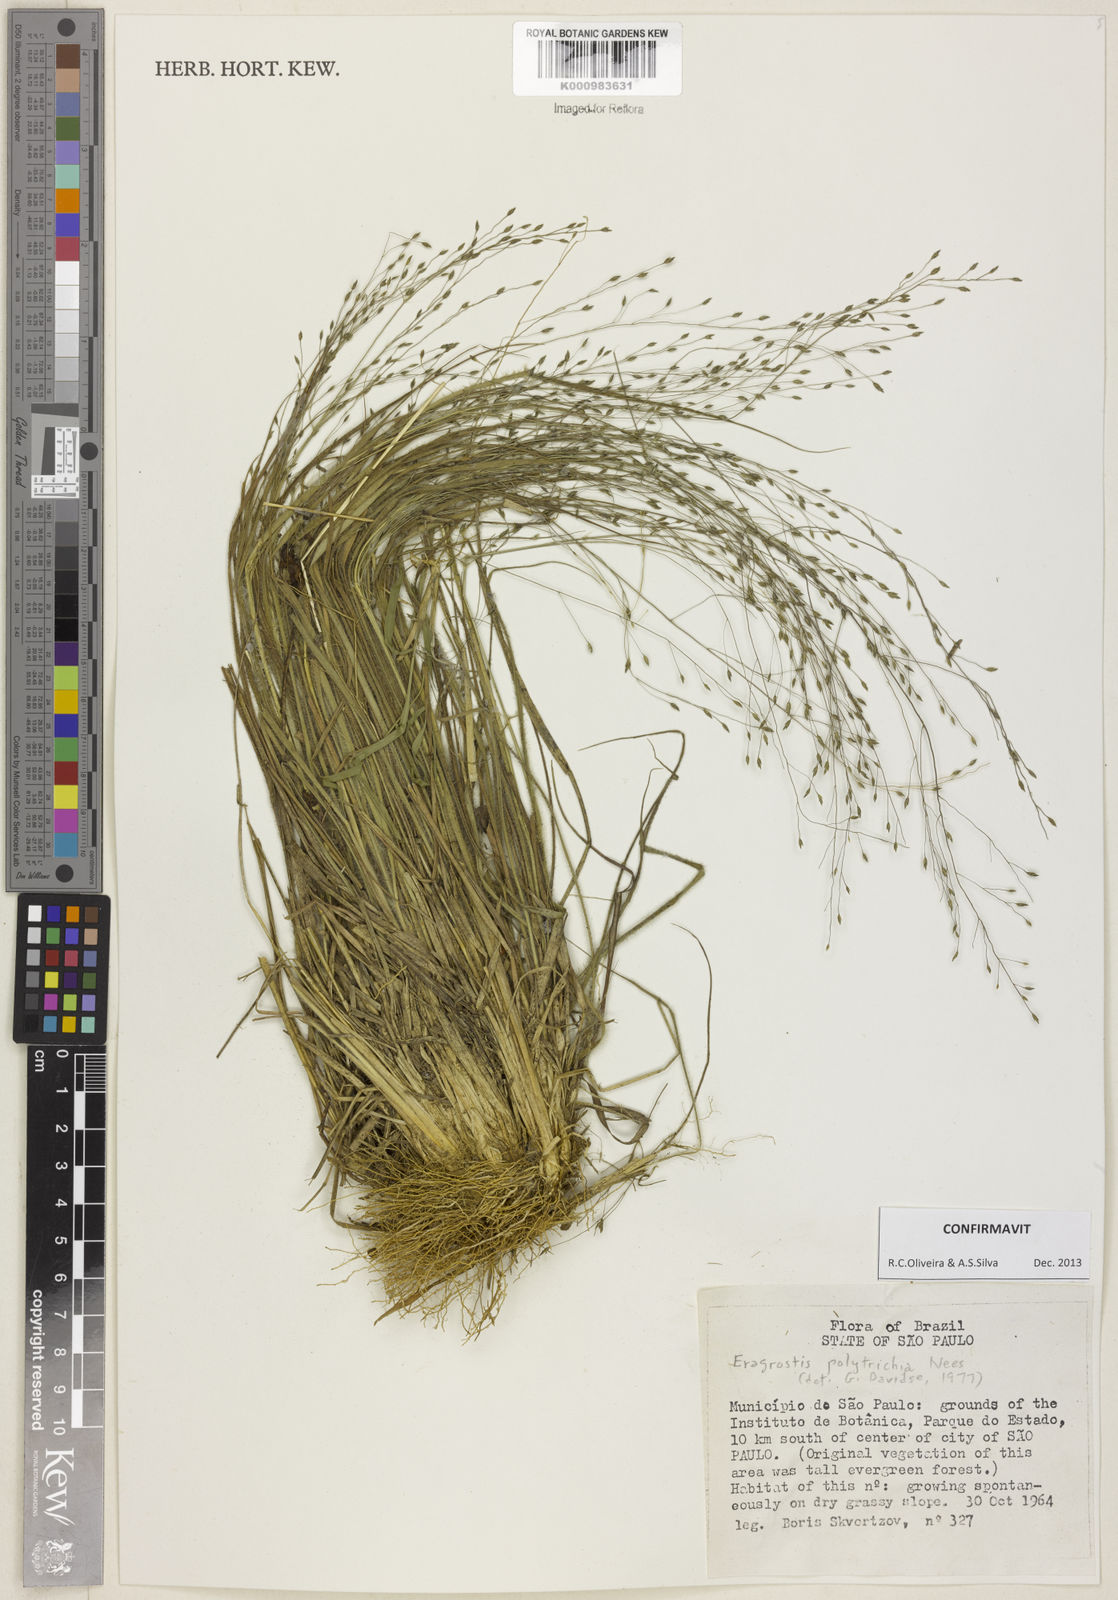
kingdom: Plantae
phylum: Tracheophyta
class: Liliopsida
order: Poales
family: Poaceae
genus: Eragrostis
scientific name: Eragrostis polytricha
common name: Hairy-sheath love grass
